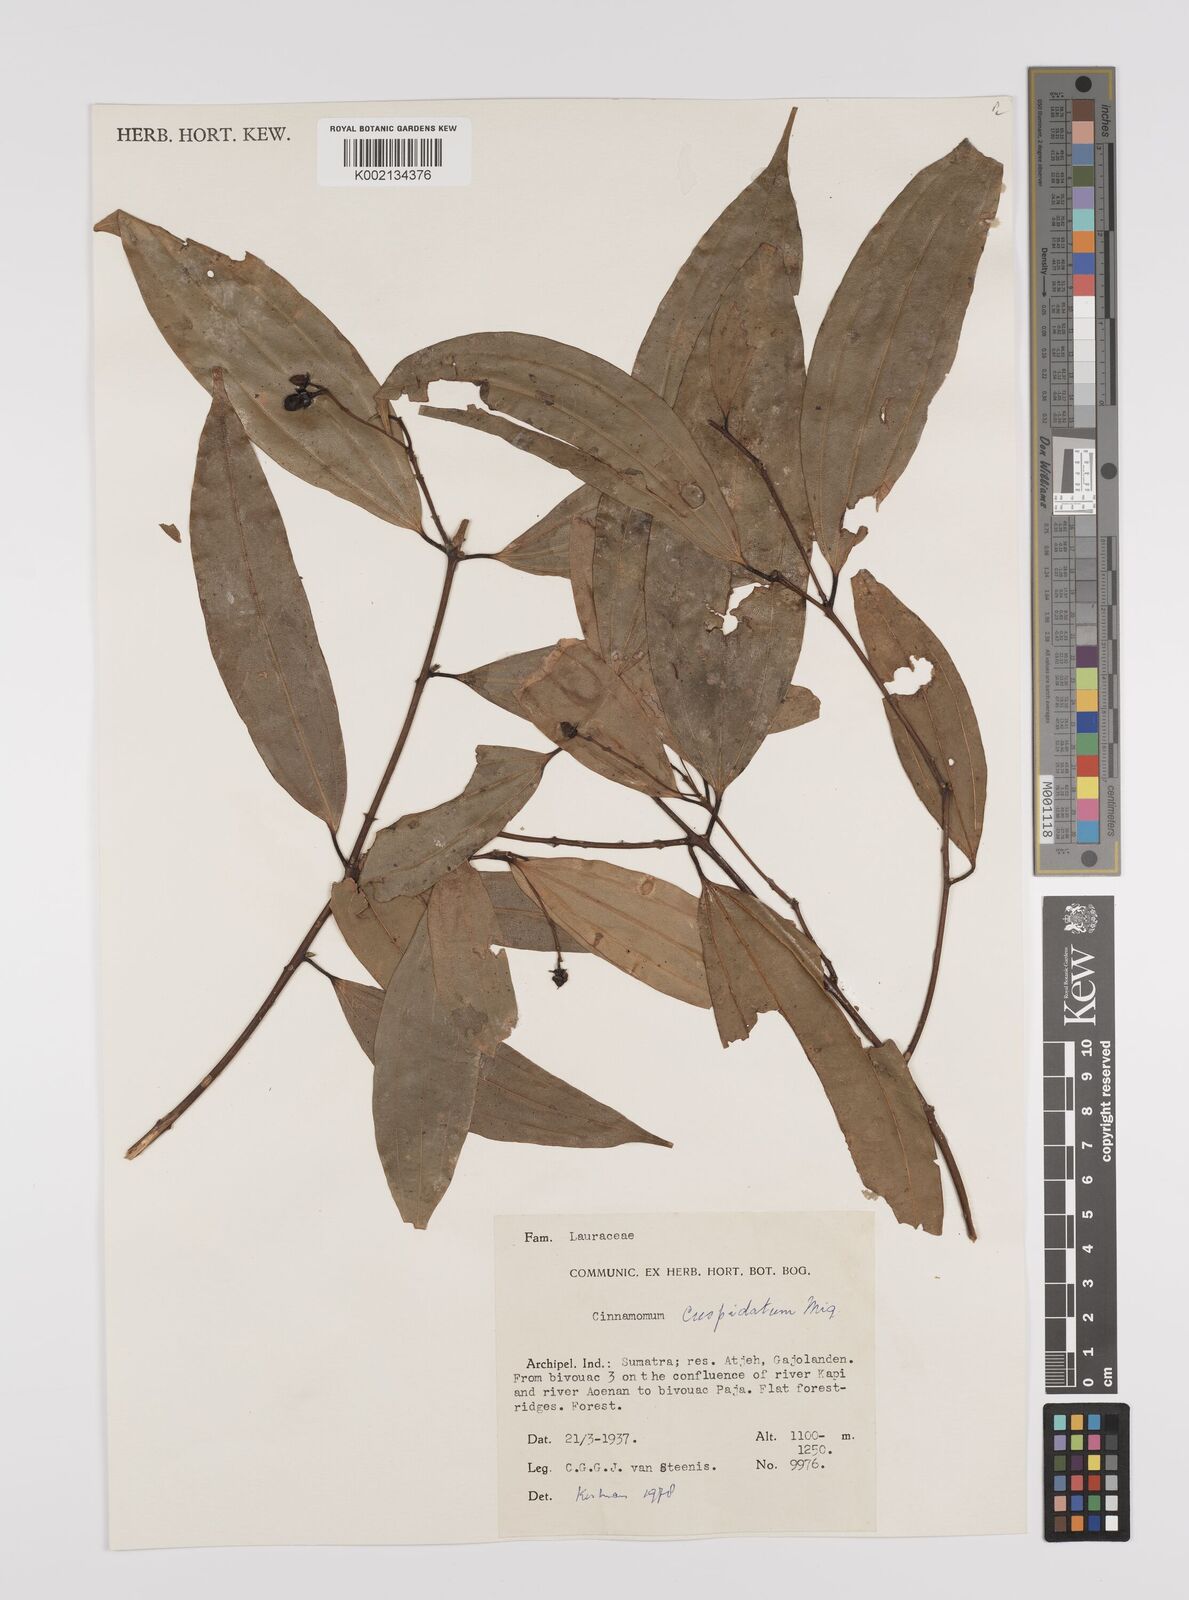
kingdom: Plantae
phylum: Tracheophyta
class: Magnoliopsida
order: Laurales
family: Lauraceae
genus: Cinnamomum
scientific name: Cinnamomum cuspidatum
